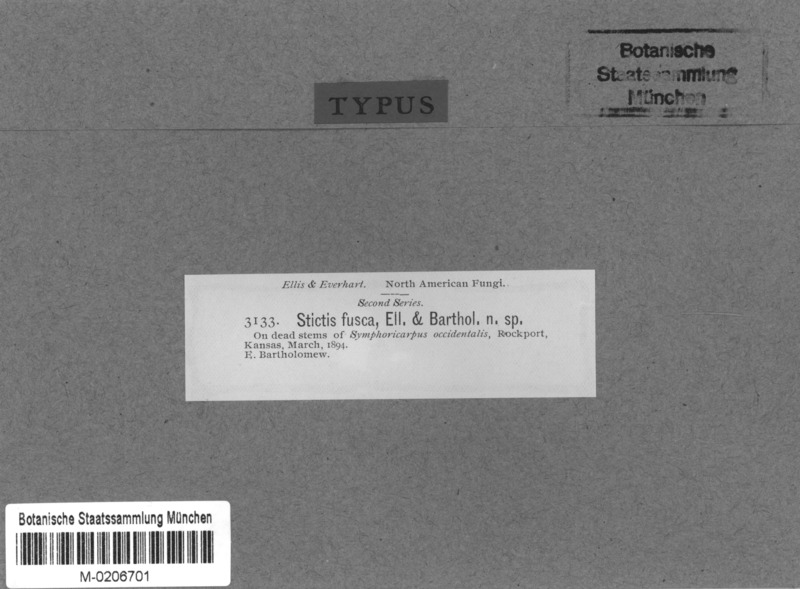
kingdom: Fungi
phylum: Ascomycota
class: Lecanoromycetes
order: Ostropales
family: Stictidaceae
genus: Stictis
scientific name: Stictis
